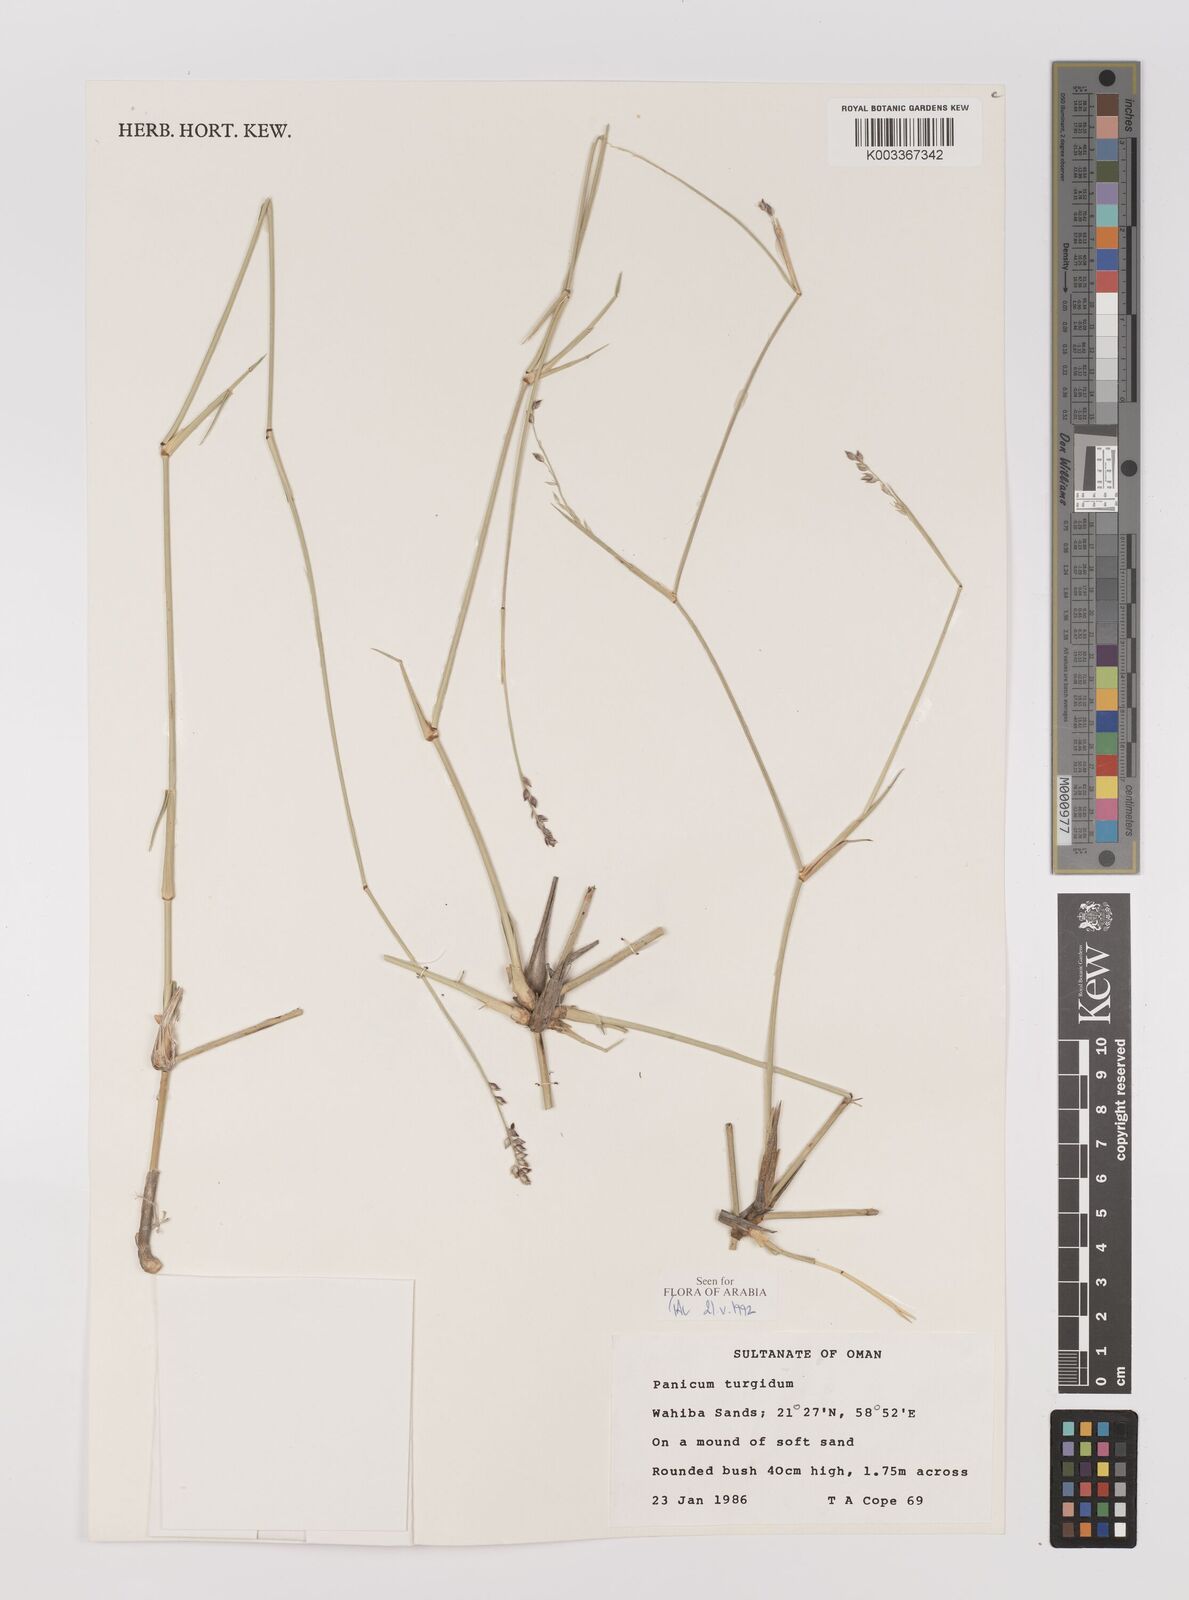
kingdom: Plantae
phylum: Tracheophyta
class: Liliopsida
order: Poales
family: Poaceae
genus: Panicum
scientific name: Panicum turgidum
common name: Desert grass
